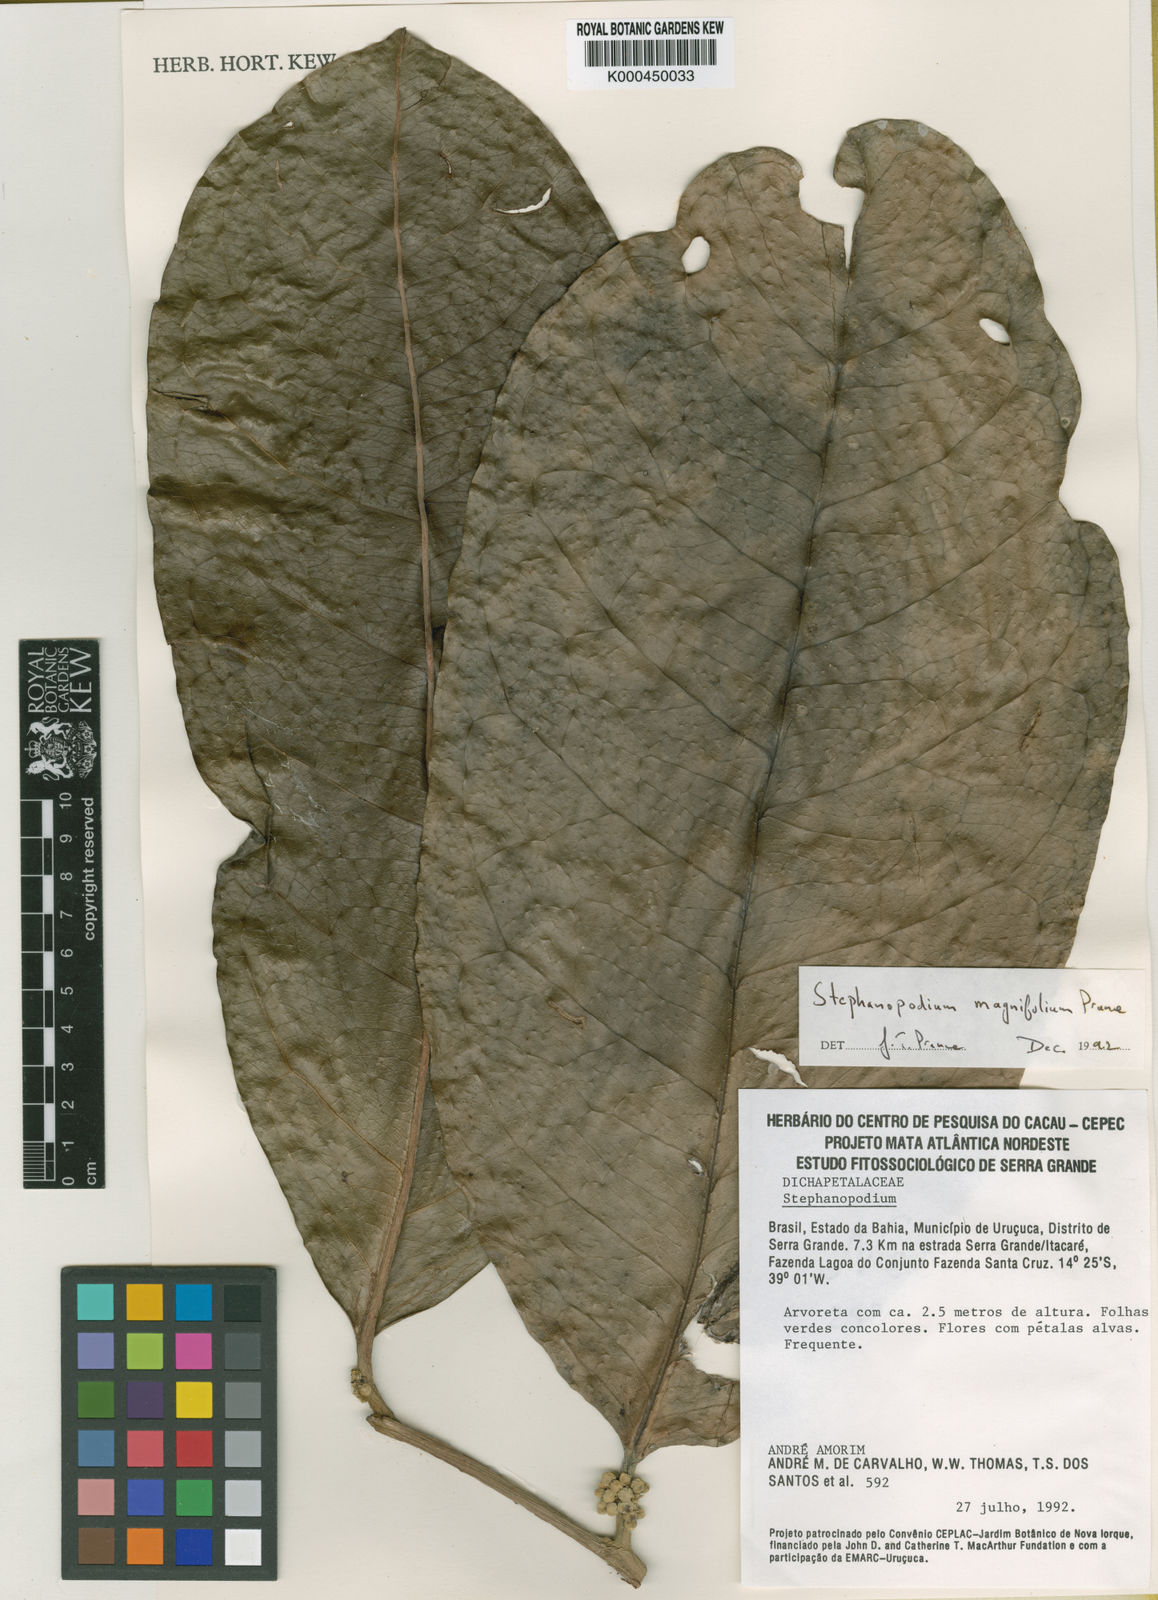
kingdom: Plantae
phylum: Tracheophyta
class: Magnoliopsida
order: Malpighiales
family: Dichapetalaceae
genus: Stephanopodium
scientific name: Stephanopodium magnifolium
